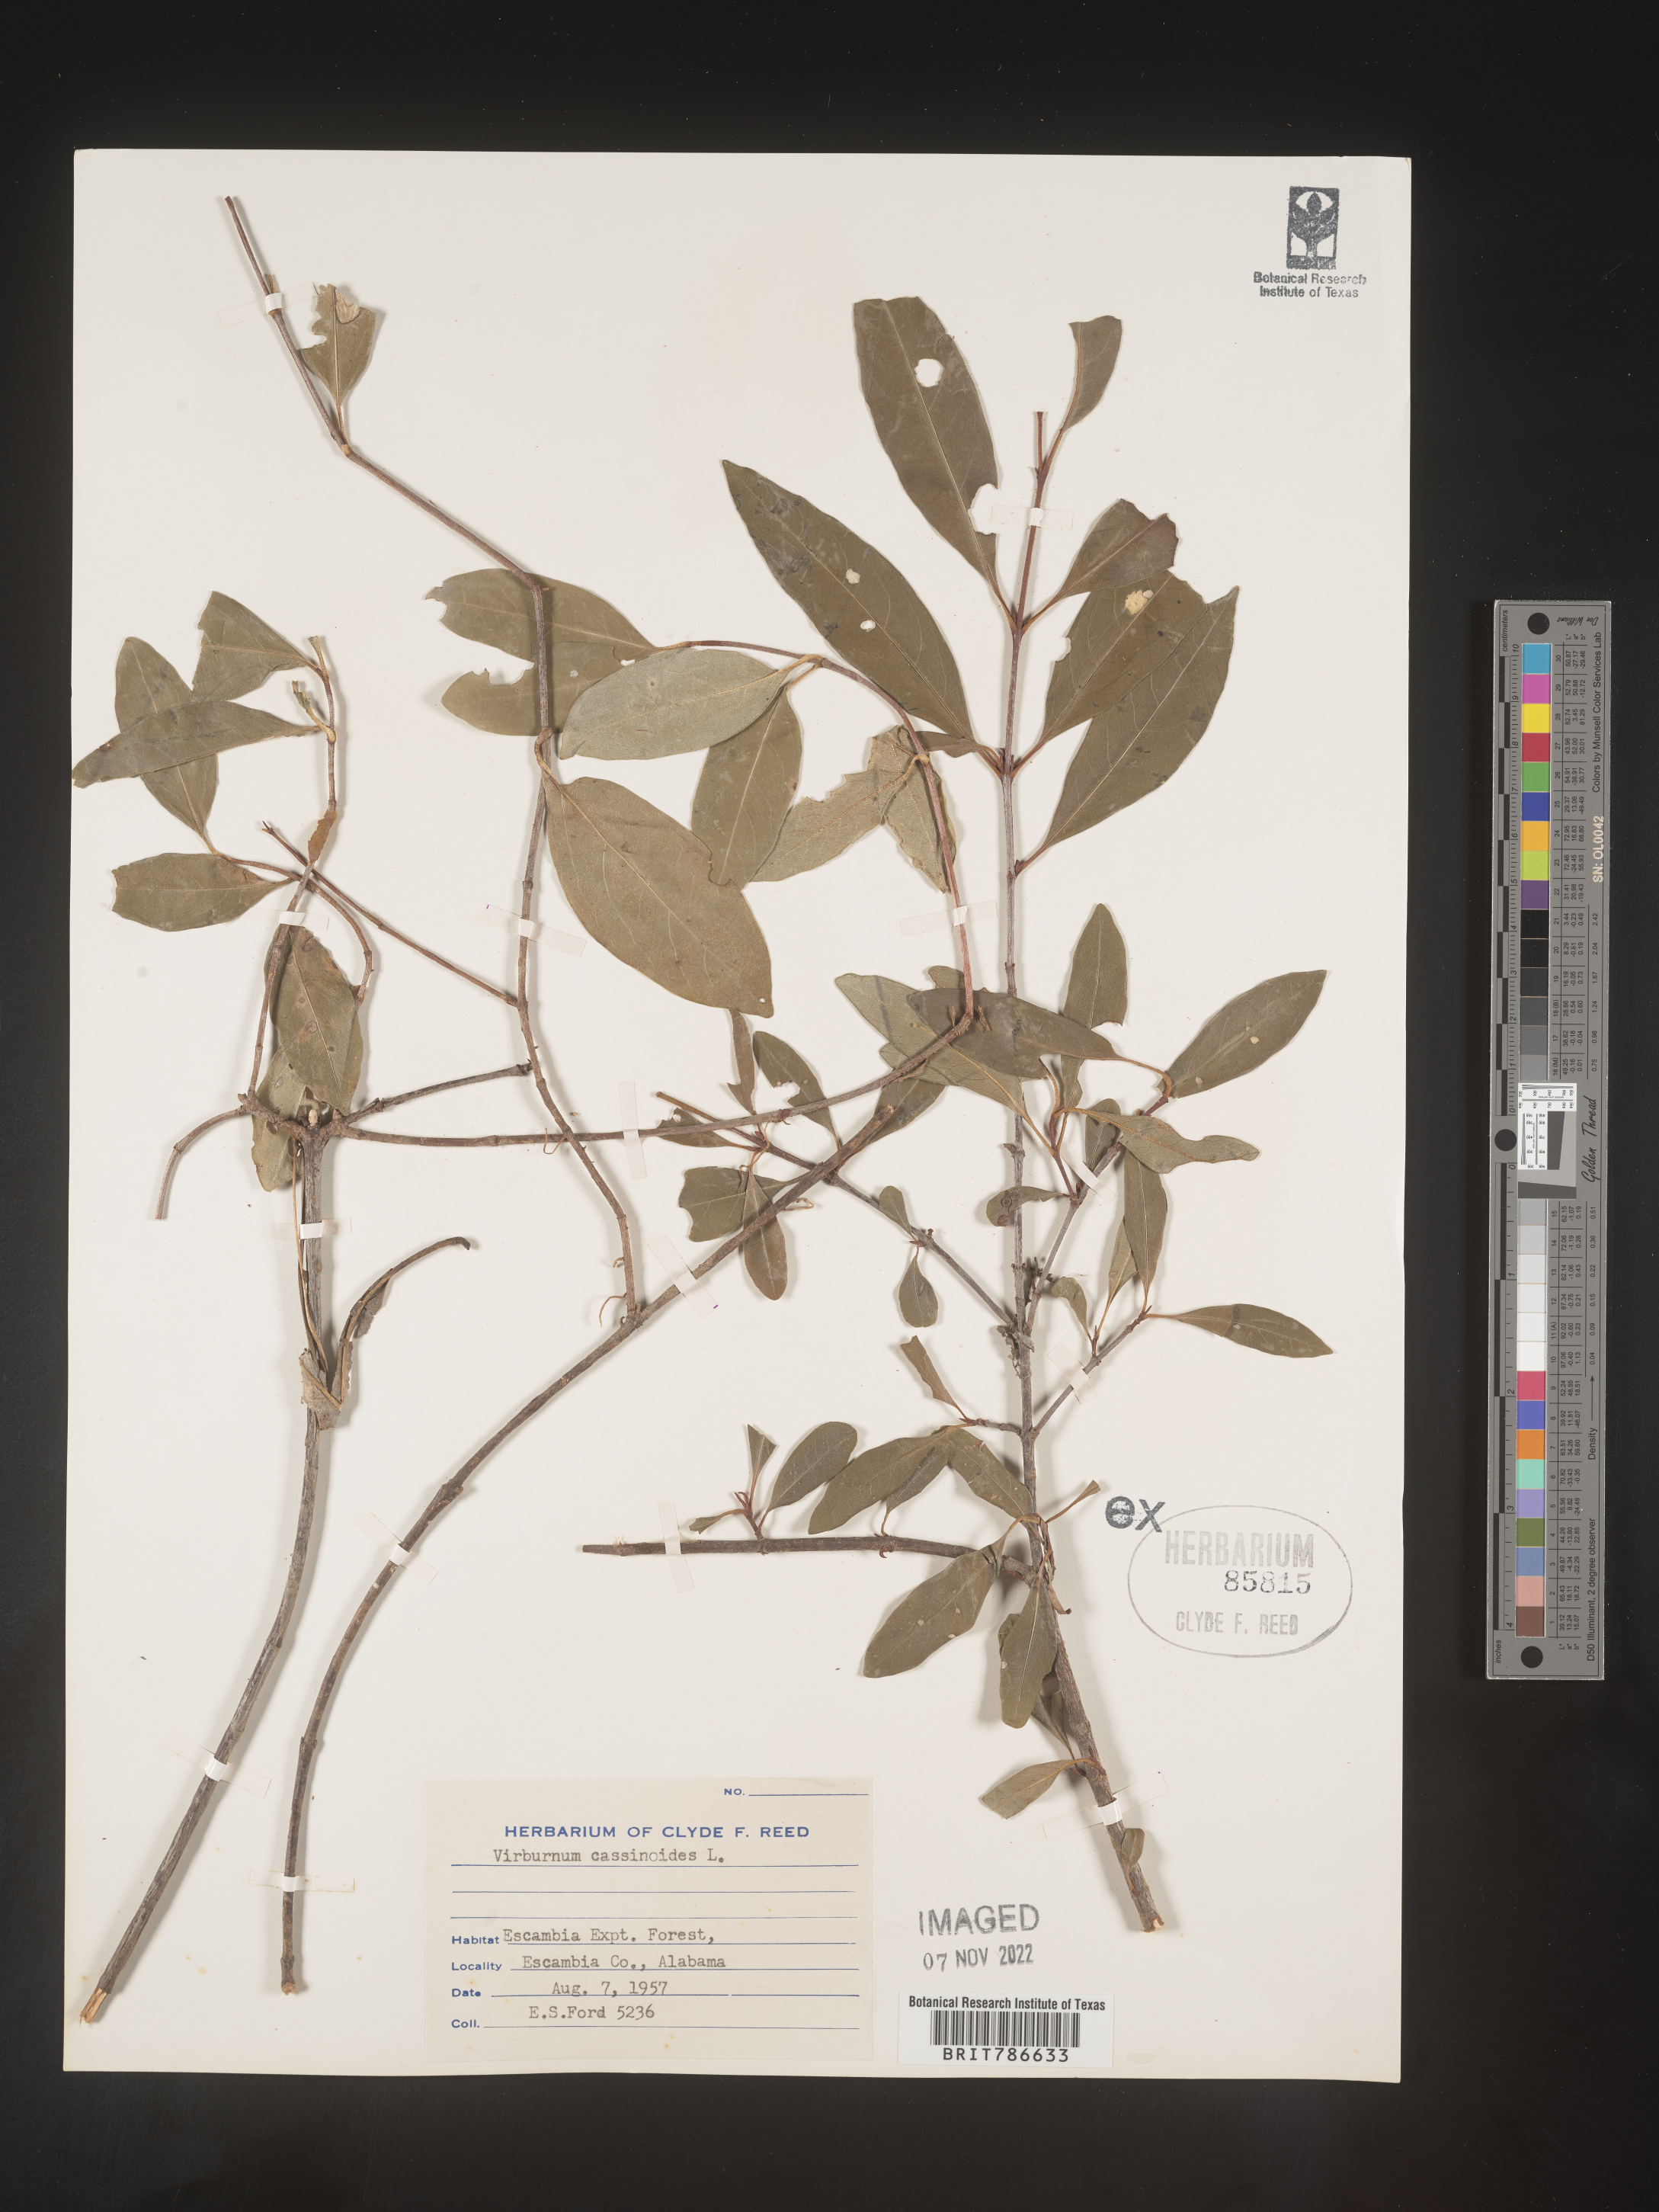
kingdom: Plantae
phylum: Tracheophyta
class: Magnoliopsida
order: Dipsacales
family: Viburnaceae
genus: Viburnum
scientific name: Viburnum cassinoides
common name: Swamp haw
